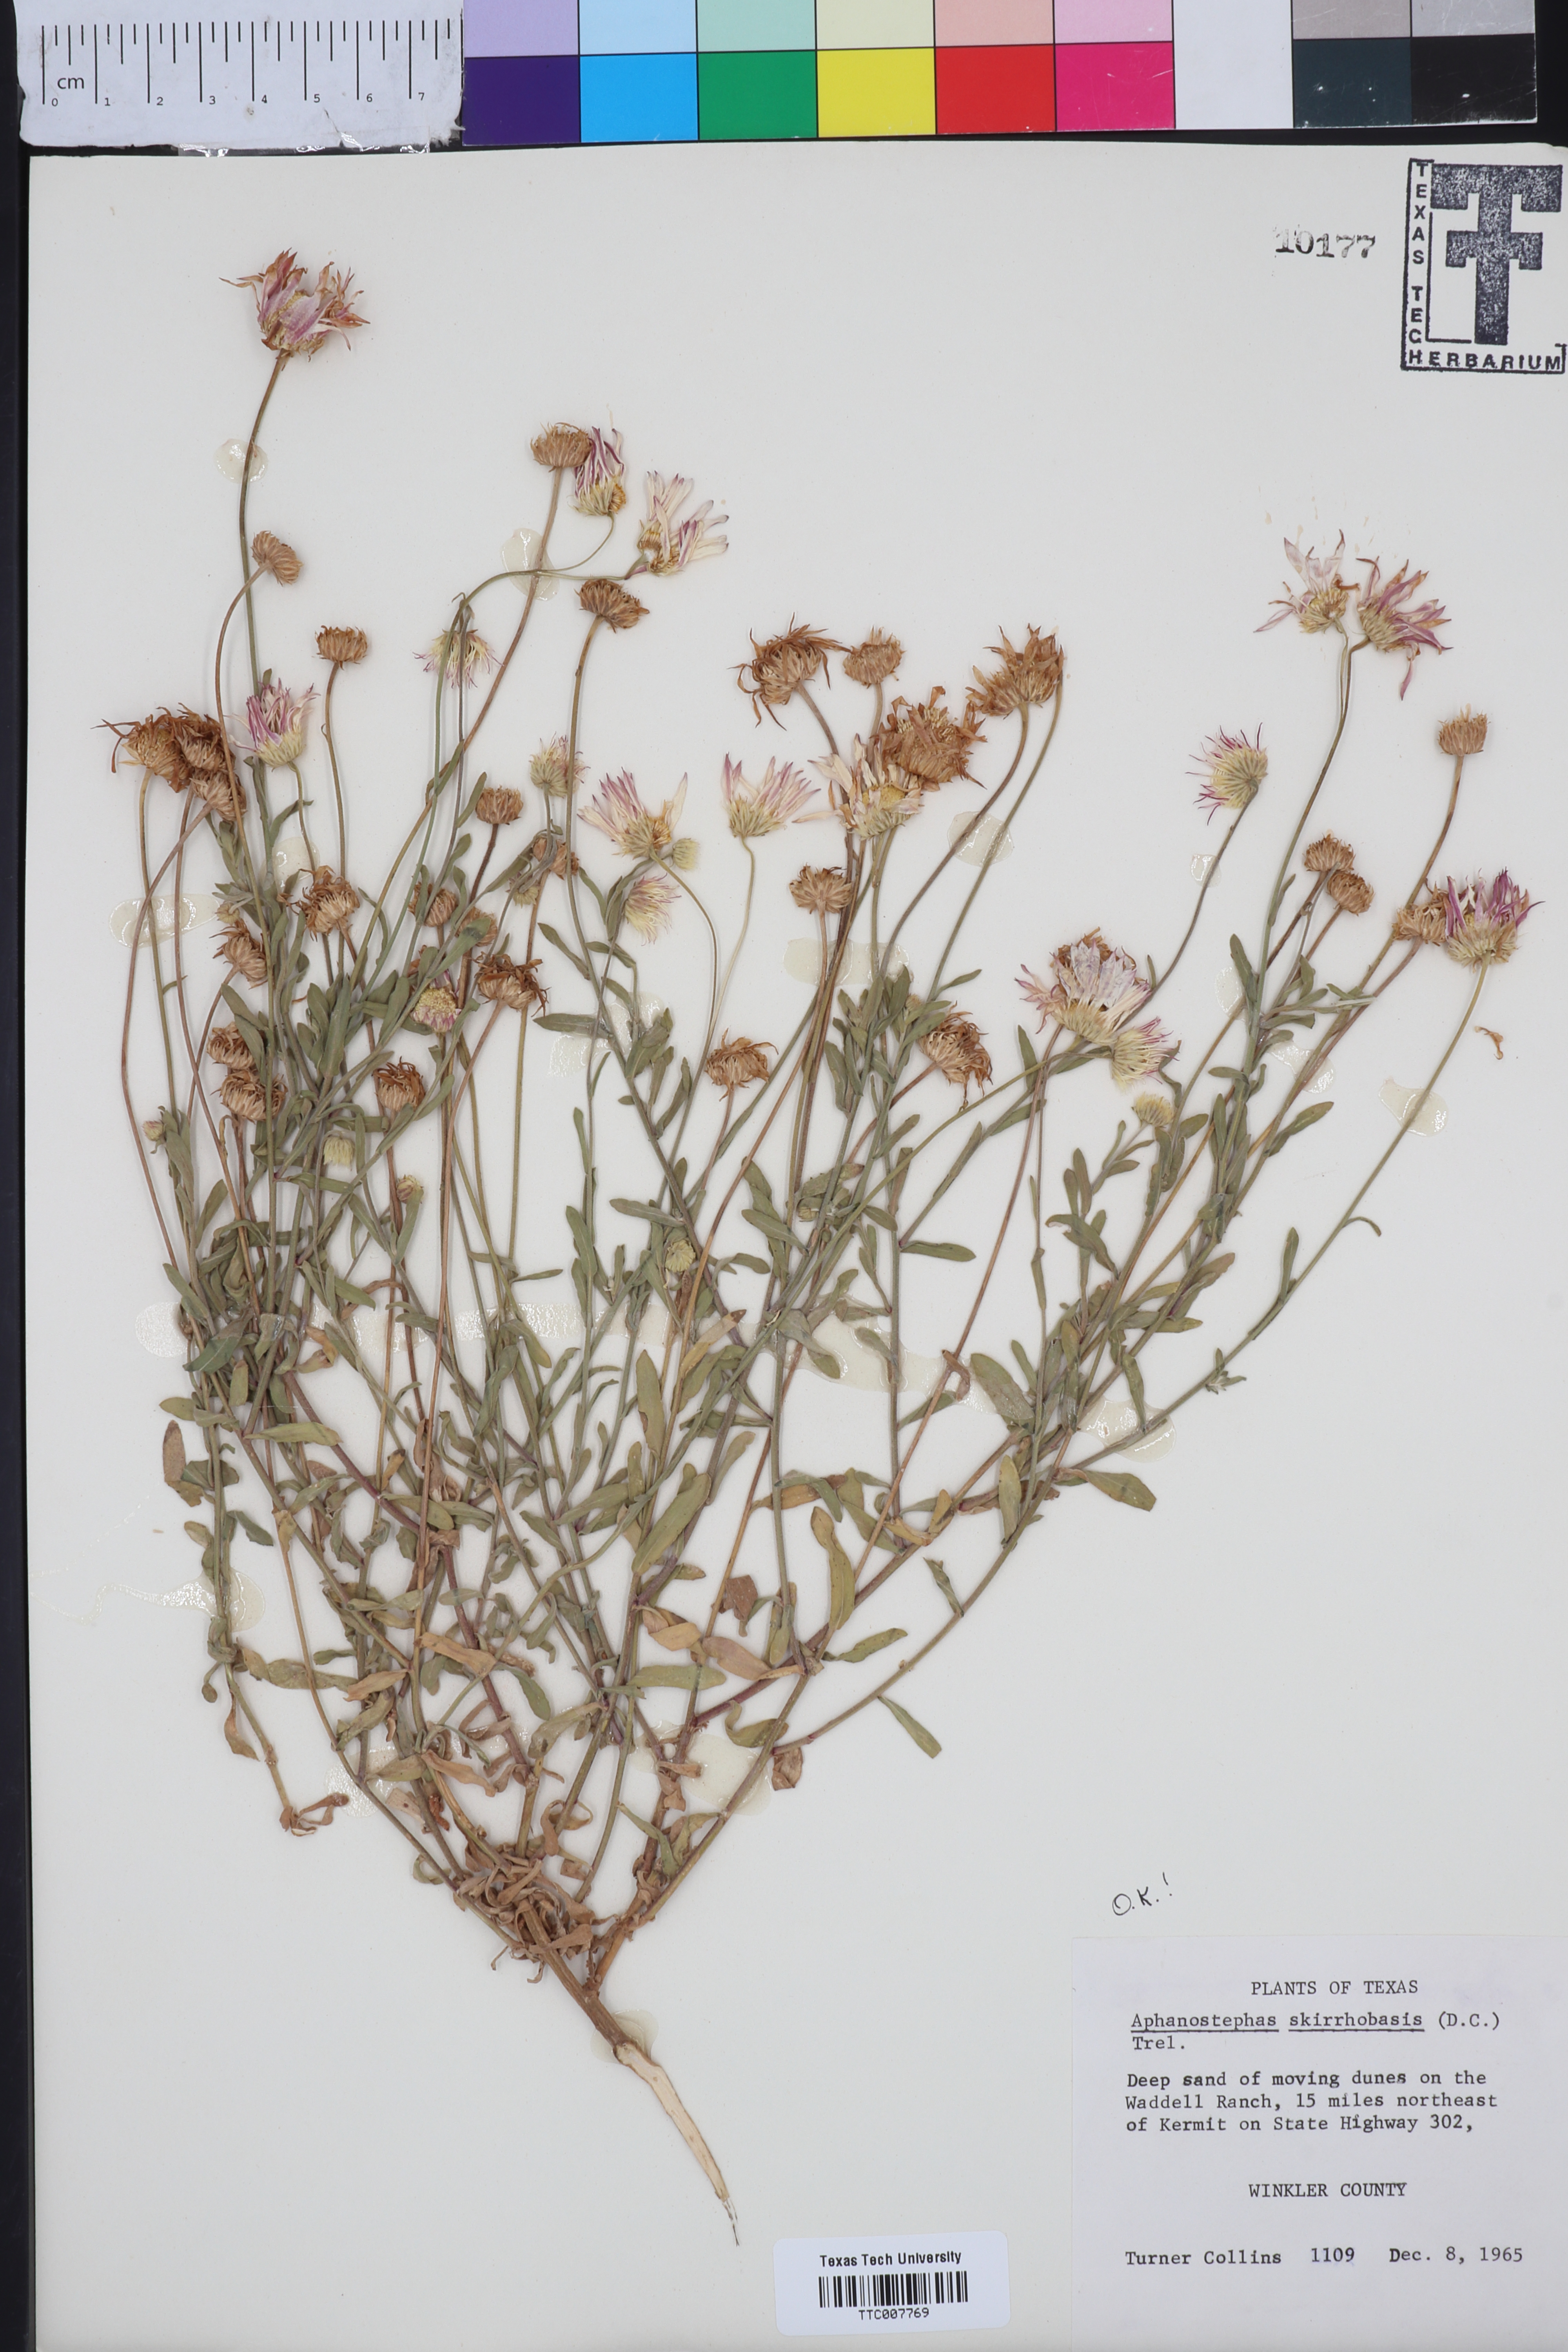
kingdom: Plantae
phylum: Tracheophyta
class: Magnoliopsida
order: Asterales
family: Asteraceae
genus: Aphanostephus
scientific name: Aphanostephus skirrhobasis
